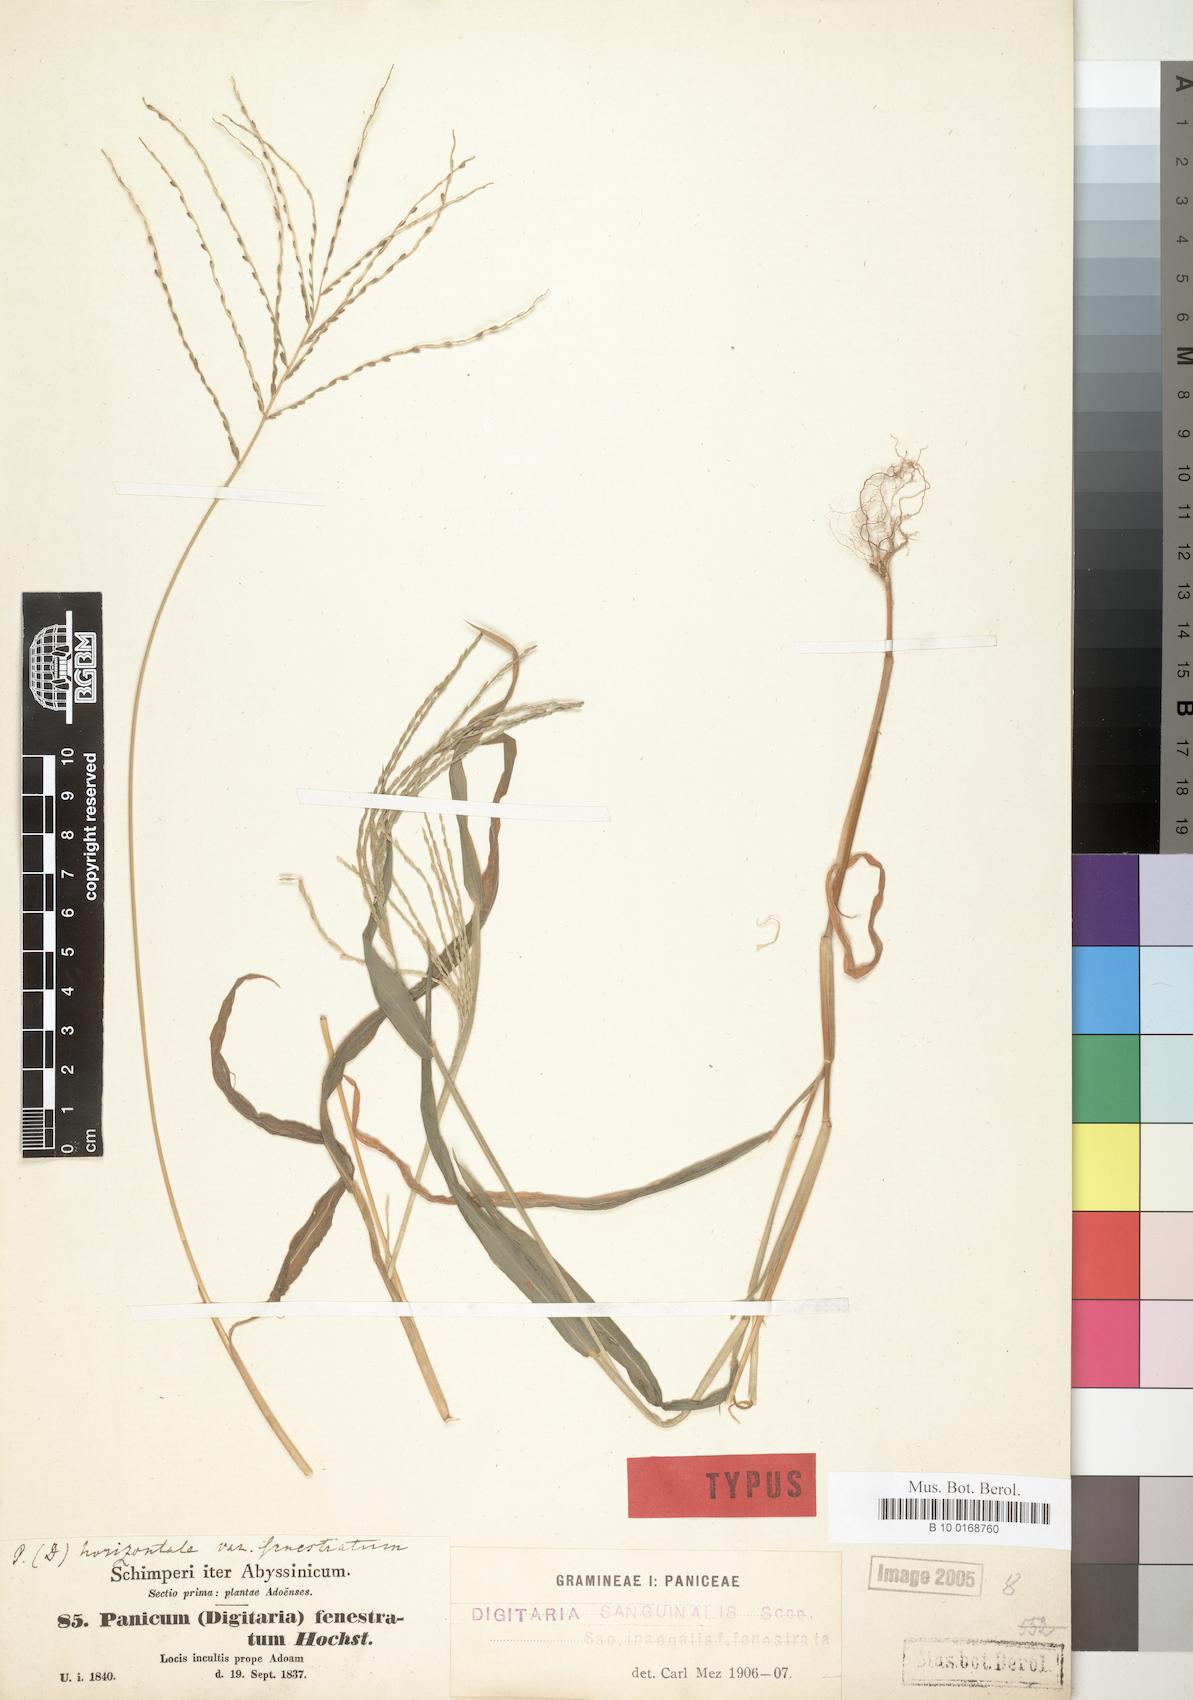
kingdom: Plantae
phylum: Tracheophyta
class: Liliopsida
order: Poales
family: Poaceae
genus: Digitaria
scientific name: Digitaria velutina
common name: Long-plume finger grass
